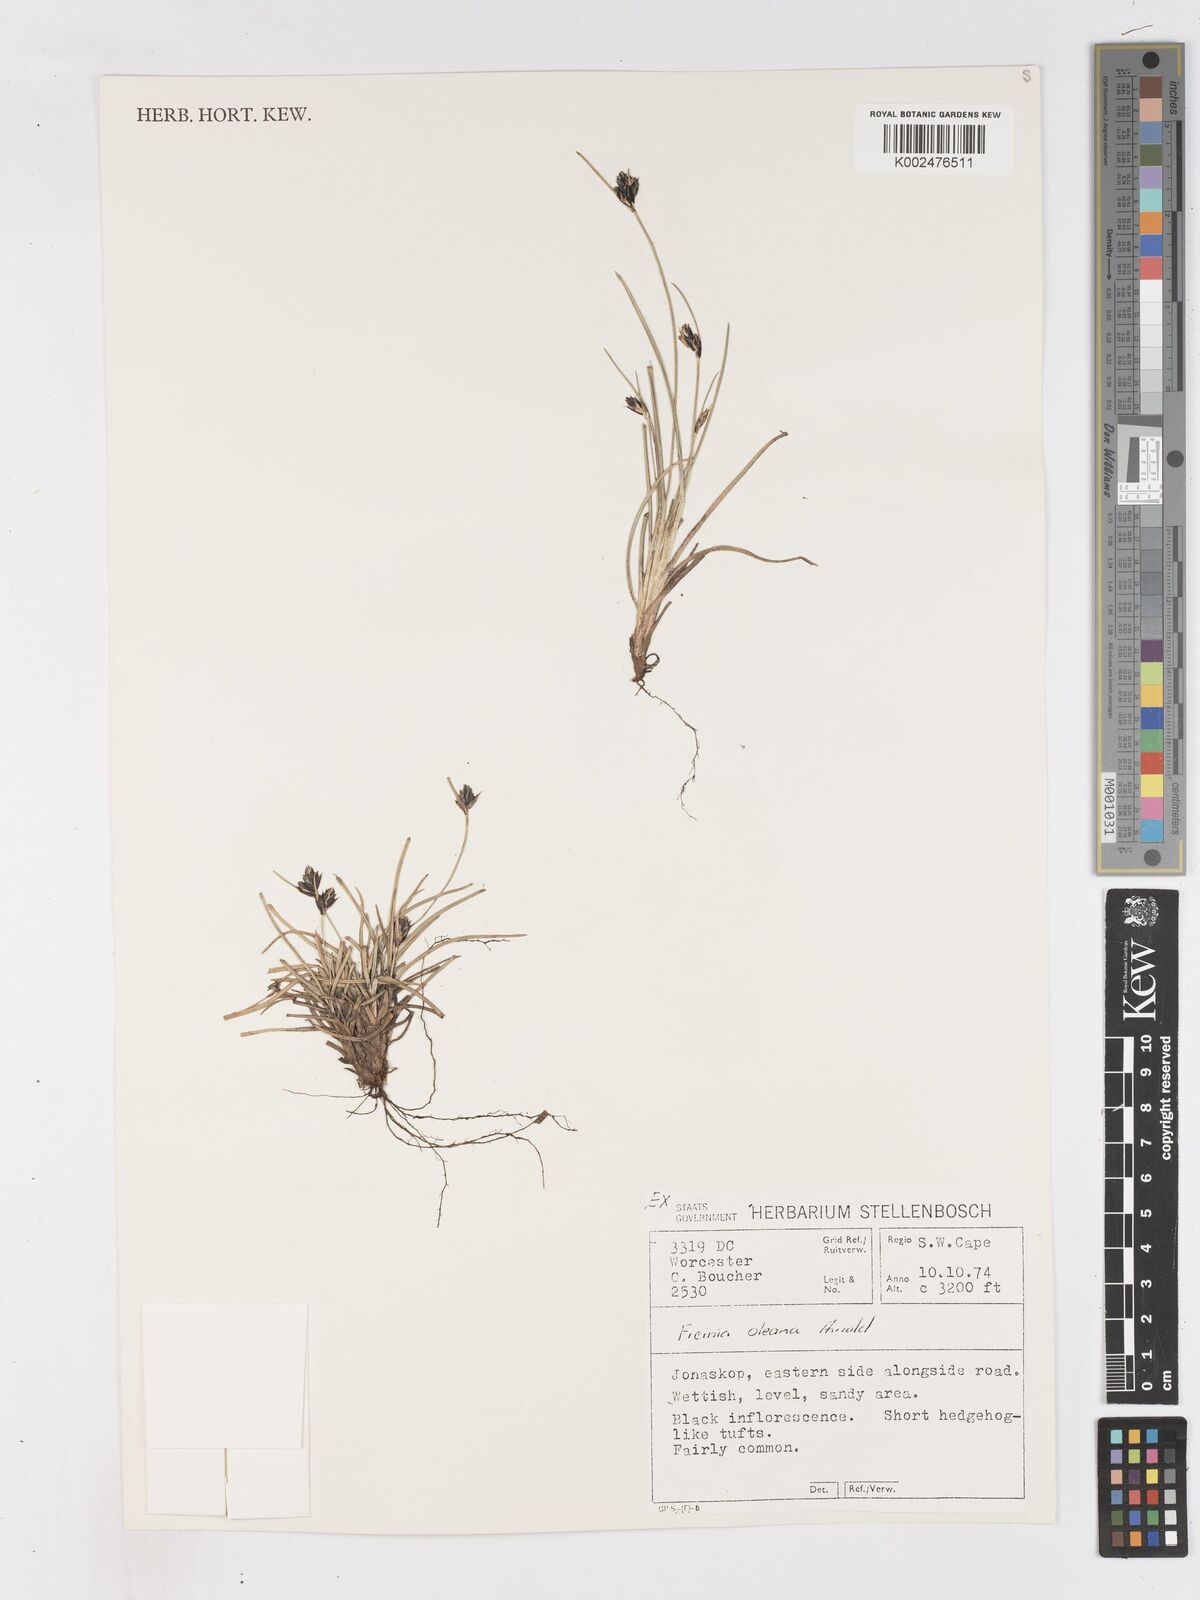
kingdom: Plantae
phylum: Tracheophyta
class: Liliopsida
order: Poales
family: Cyperaceae
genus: Ficinia
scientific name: Ficinia
